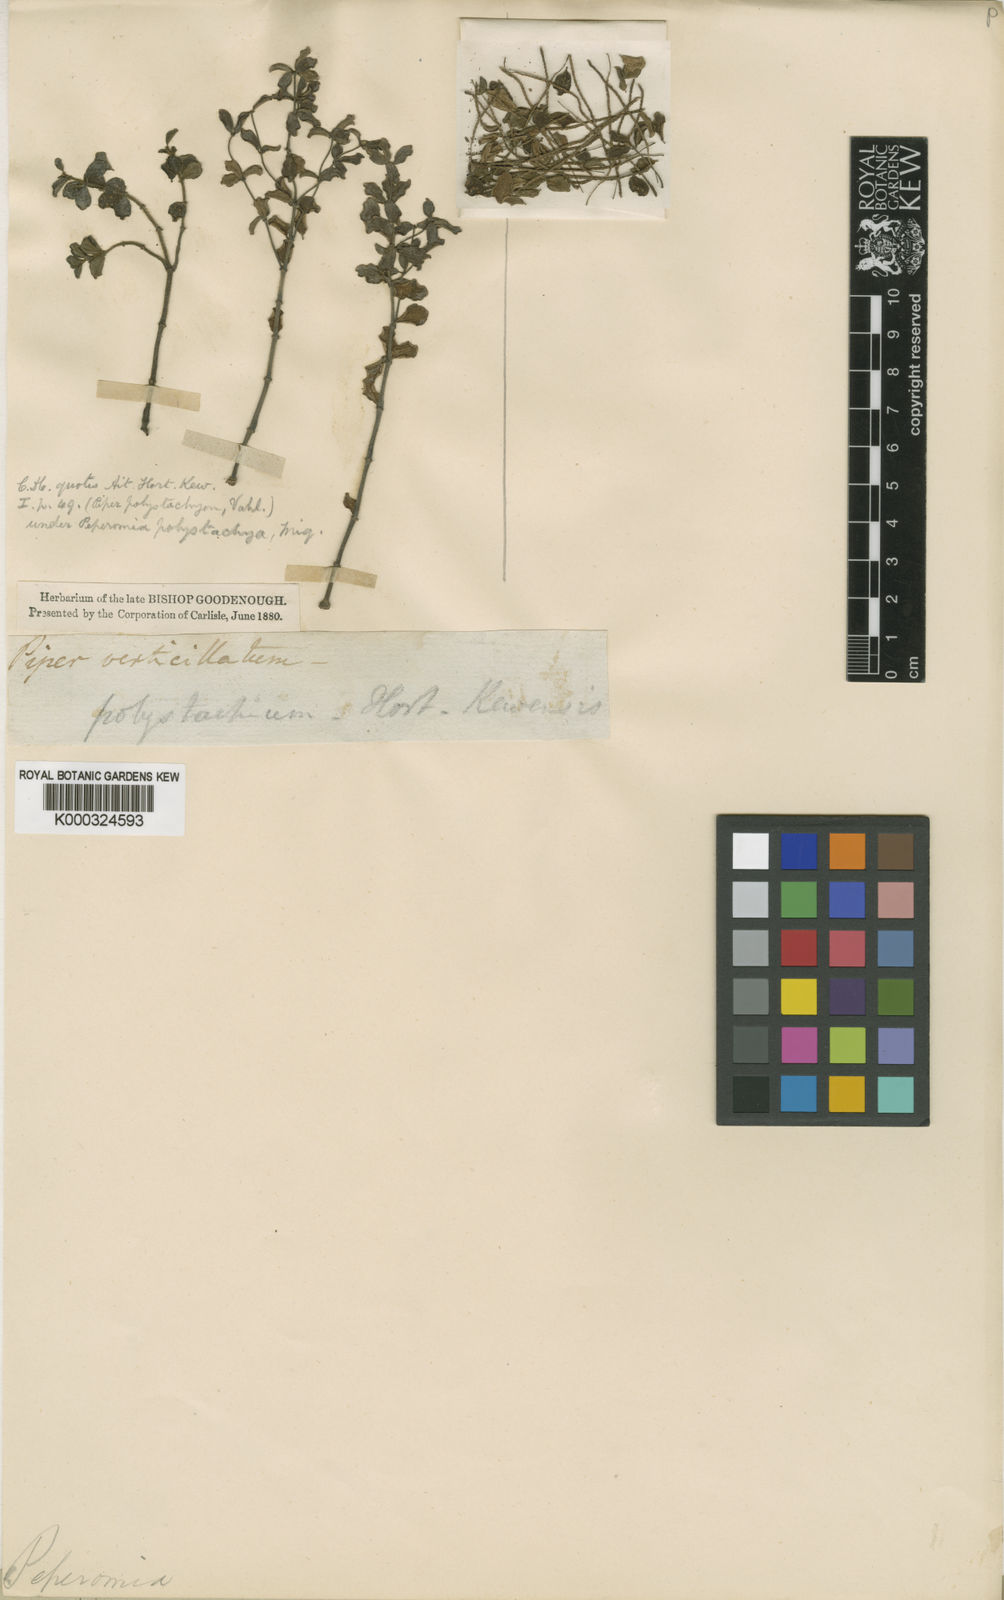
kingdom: Plantae
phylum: Tracheophyta
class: Magnoliopsida
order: Piperales
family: Piperaceae
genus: Peperomia
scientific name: Peperomia verticillata
